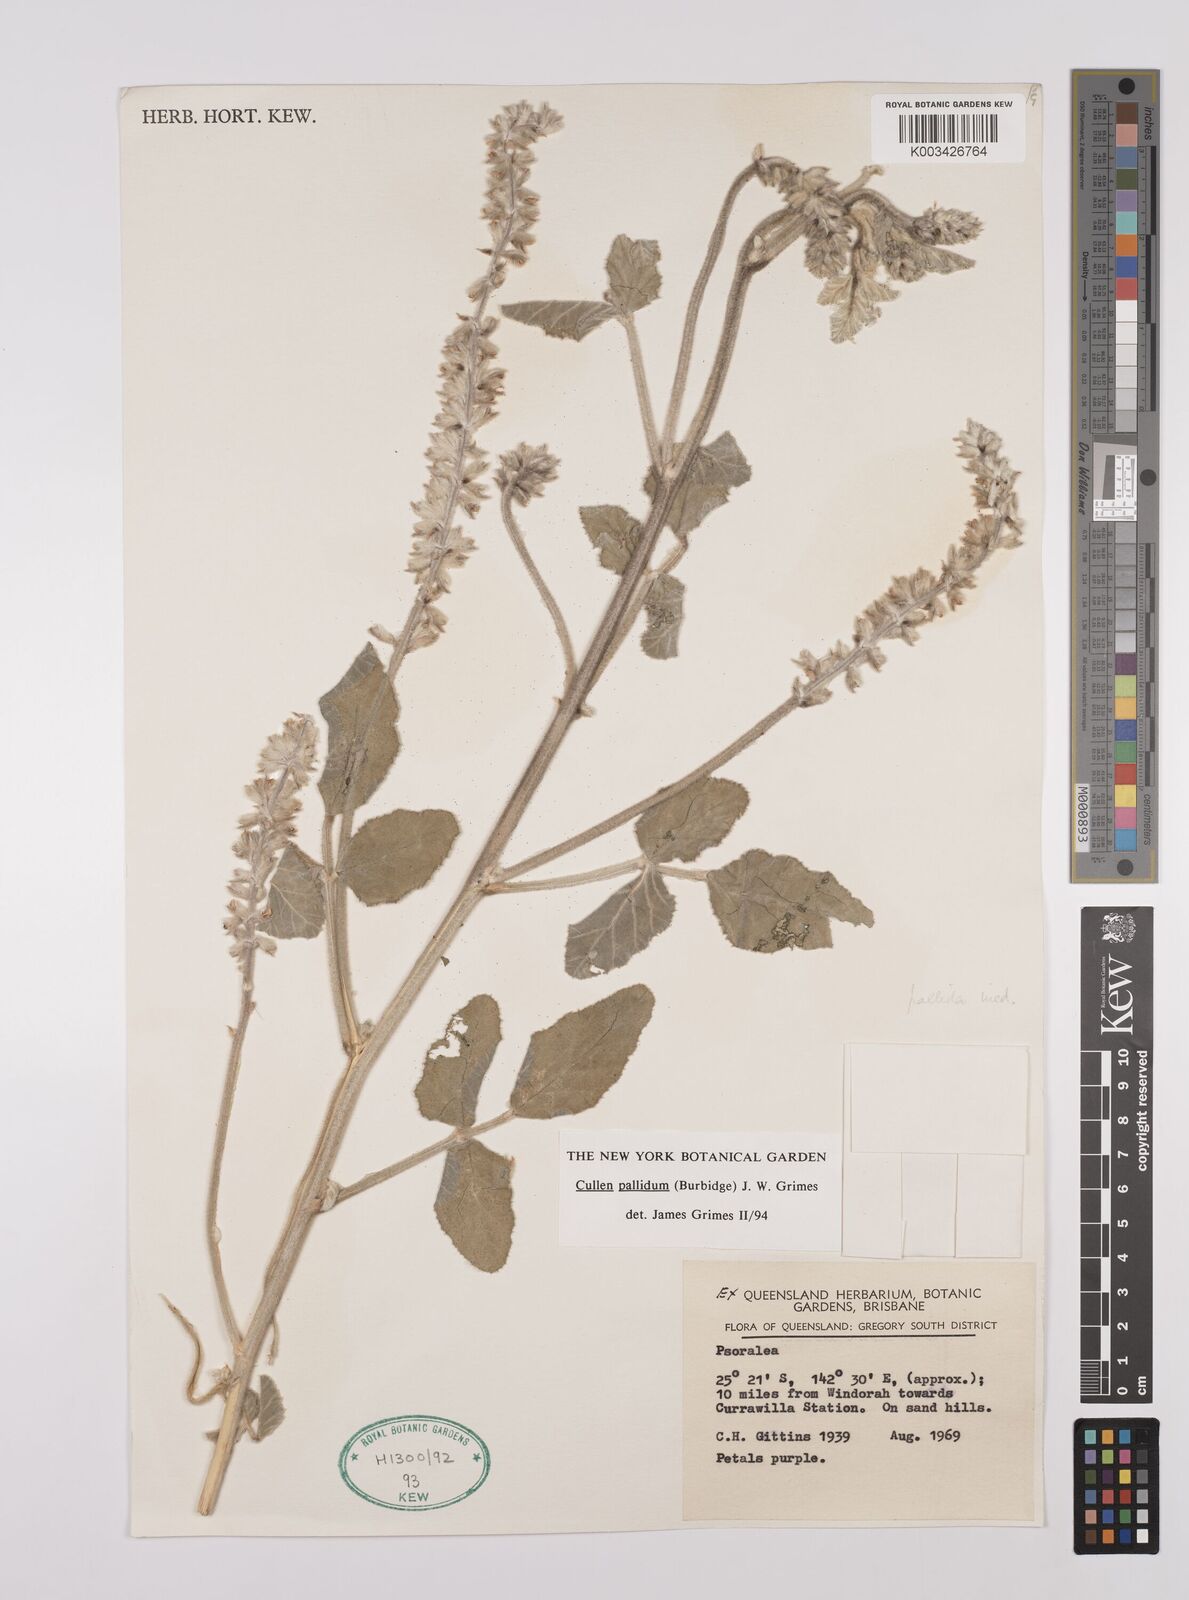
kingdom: Plantae
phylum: Tracheophyta
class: Magnoliopsida
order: Fabales
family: Fabaceae
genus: Cullen
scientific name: Cullen pallidum
